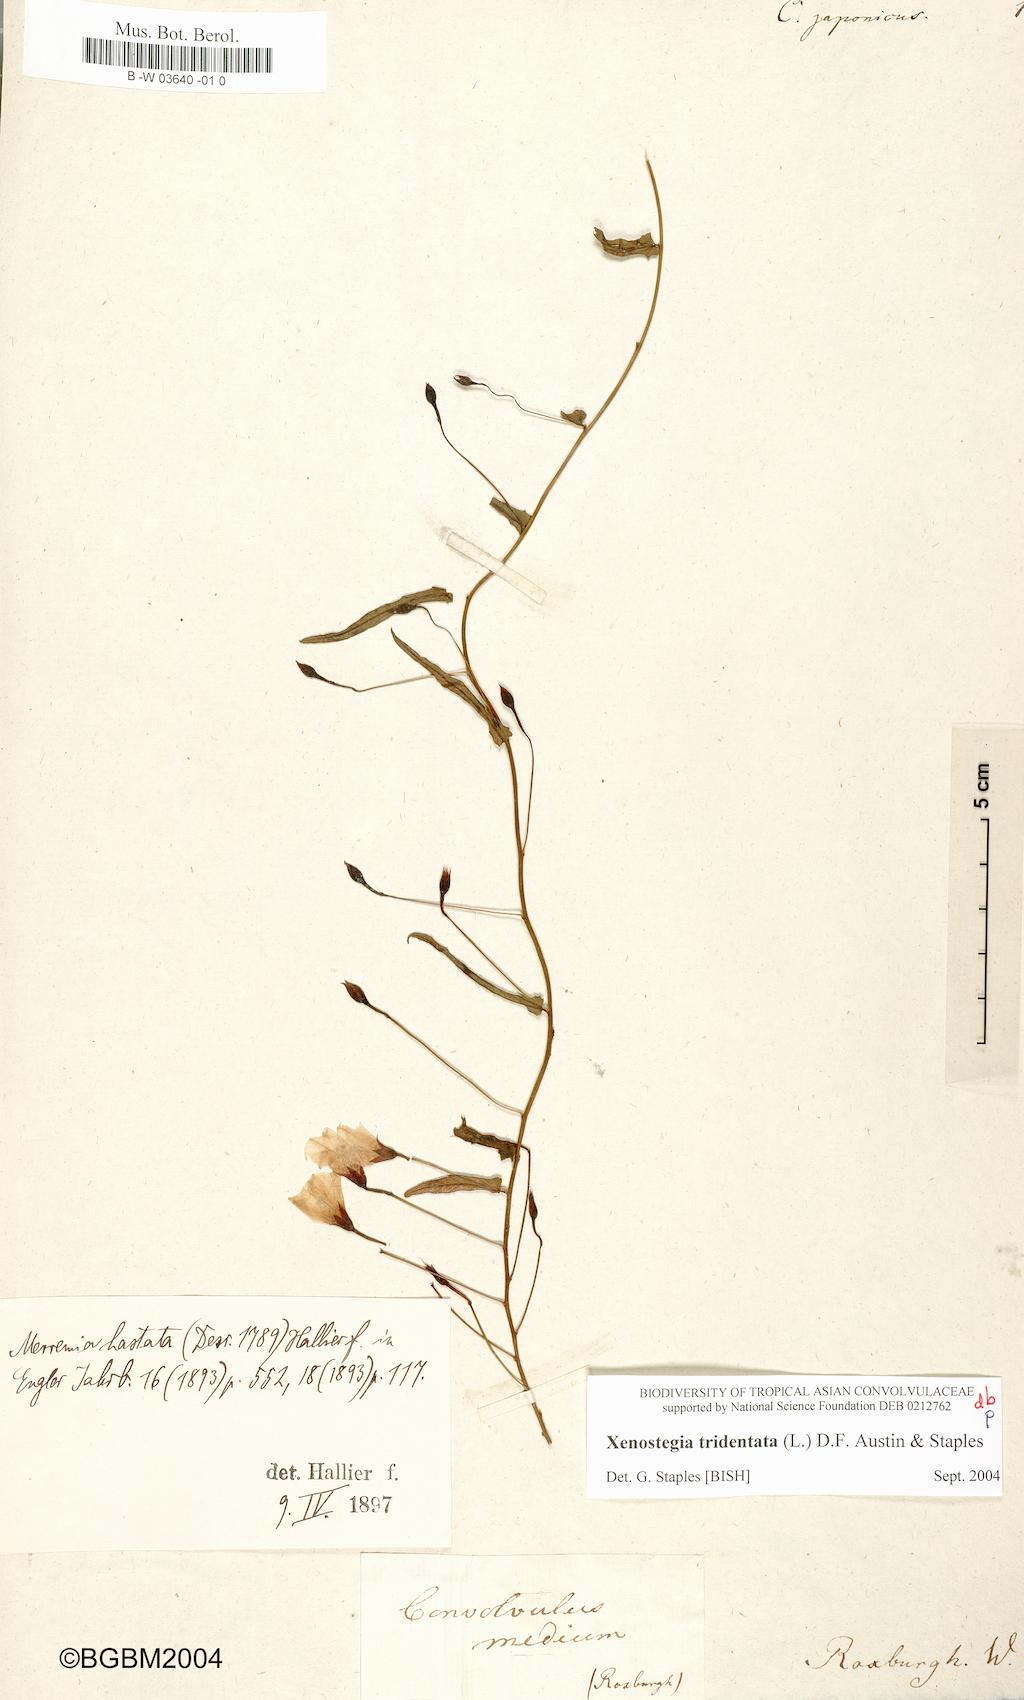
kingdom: Plantae
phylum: Tracheophyta
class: Magnoliopsida
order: Solanales
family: Convolvulaceae
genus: Calystegia
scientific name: Calystegia pubescens
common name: Japanese bindweed
